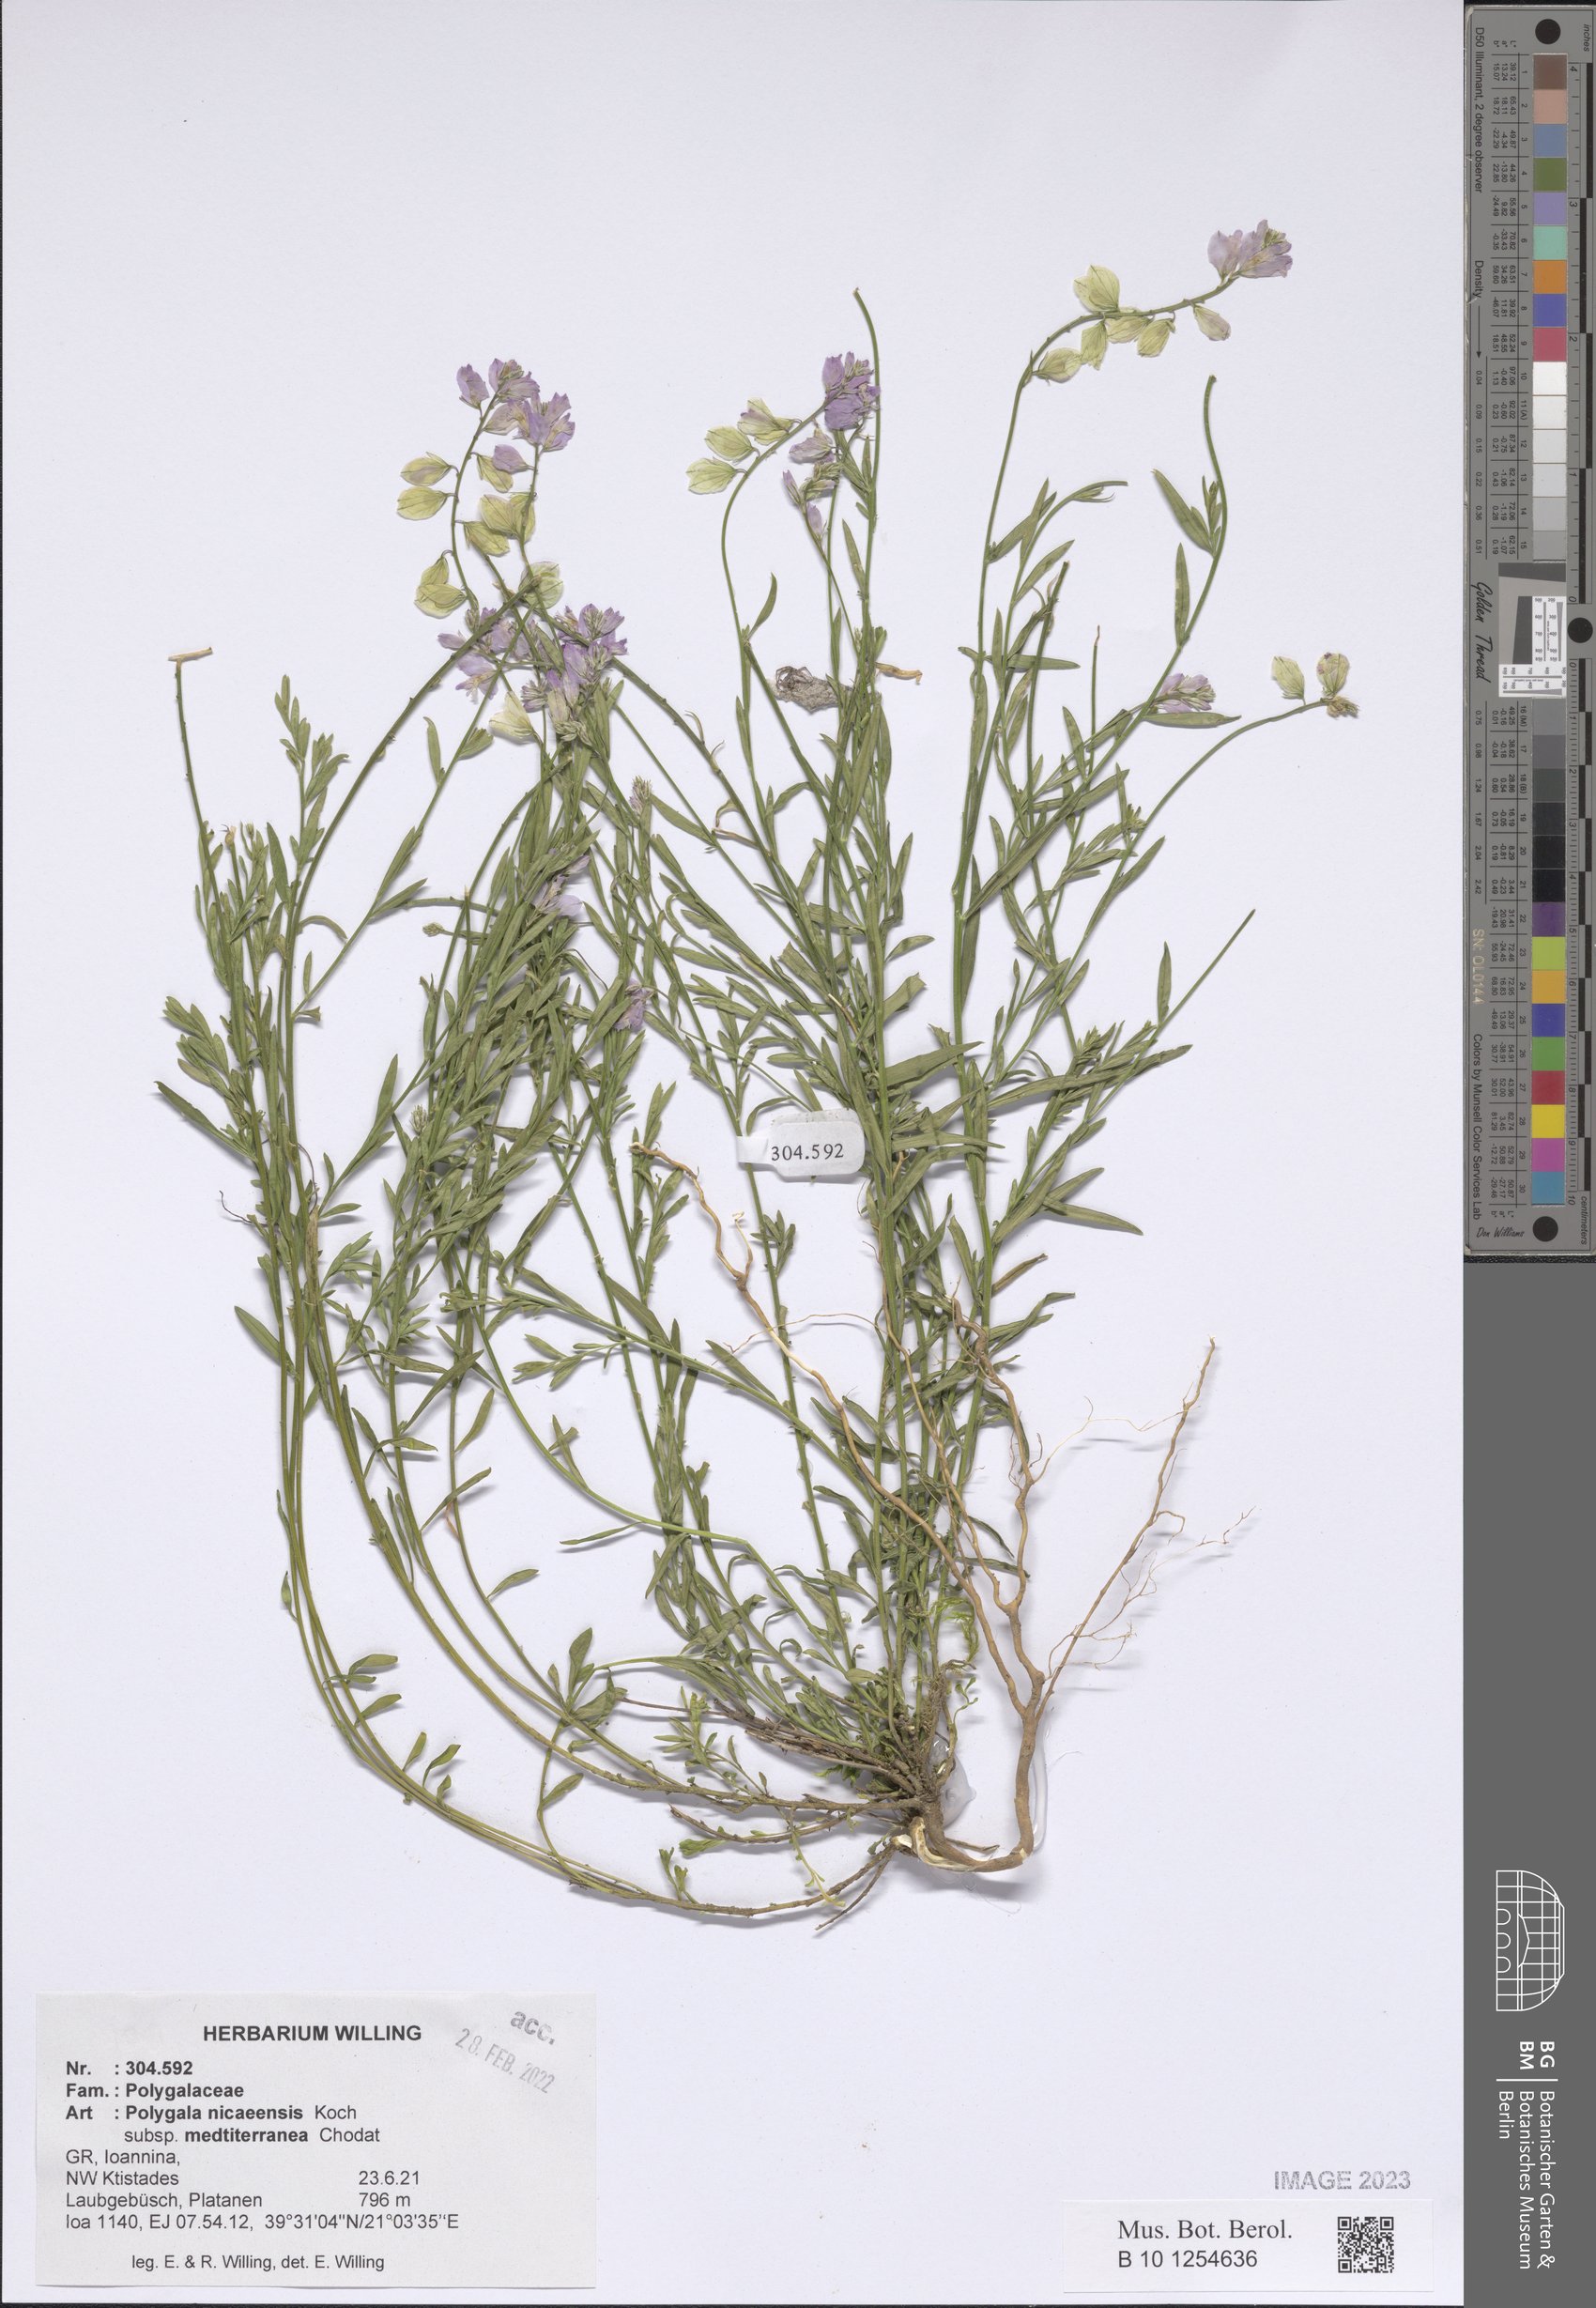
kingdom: Plantae
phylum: Tracheophyta
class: Magnoliopsida
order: Fabales
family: Polygalaceae
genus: Polygala
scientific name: Polygala nicaeensis
